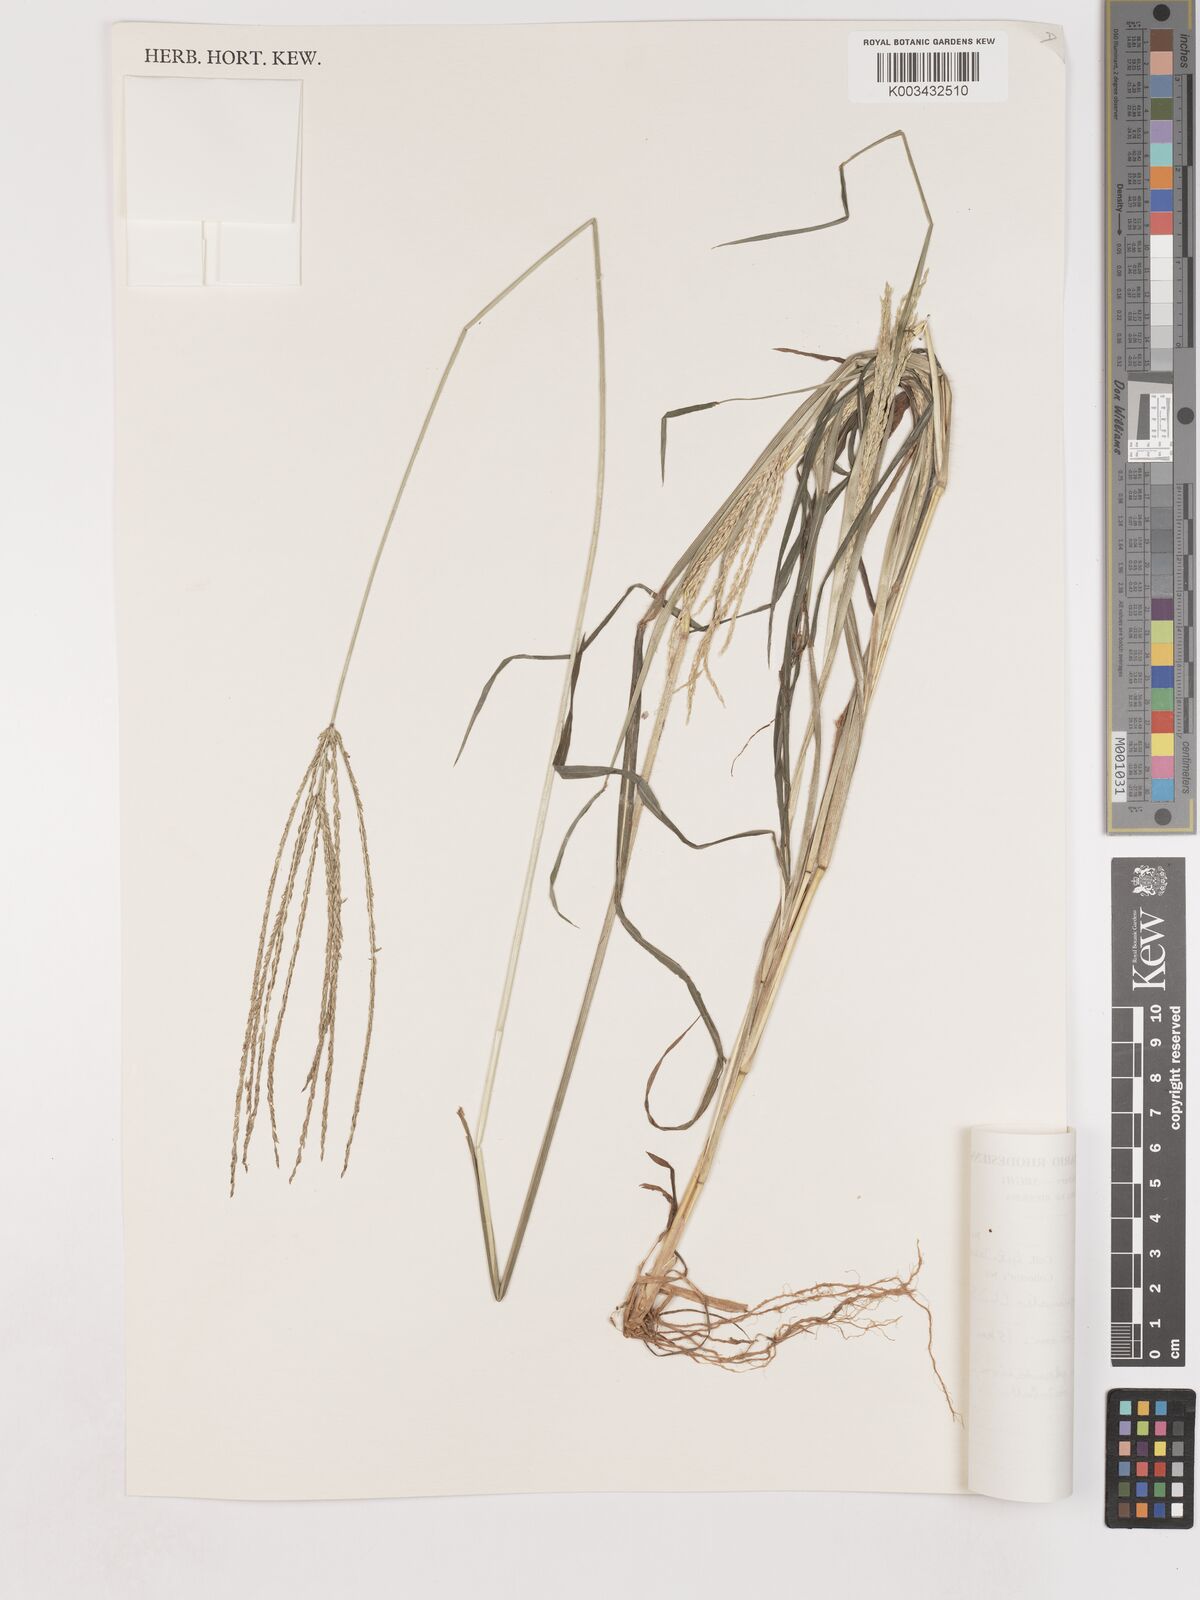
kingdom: Plantae
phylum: Tracheophyta
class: Liliopsida
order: Poales
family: Poaceae
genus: Digitaria
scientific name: Digitaria sanguinalis
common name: Hairy crabgrass
